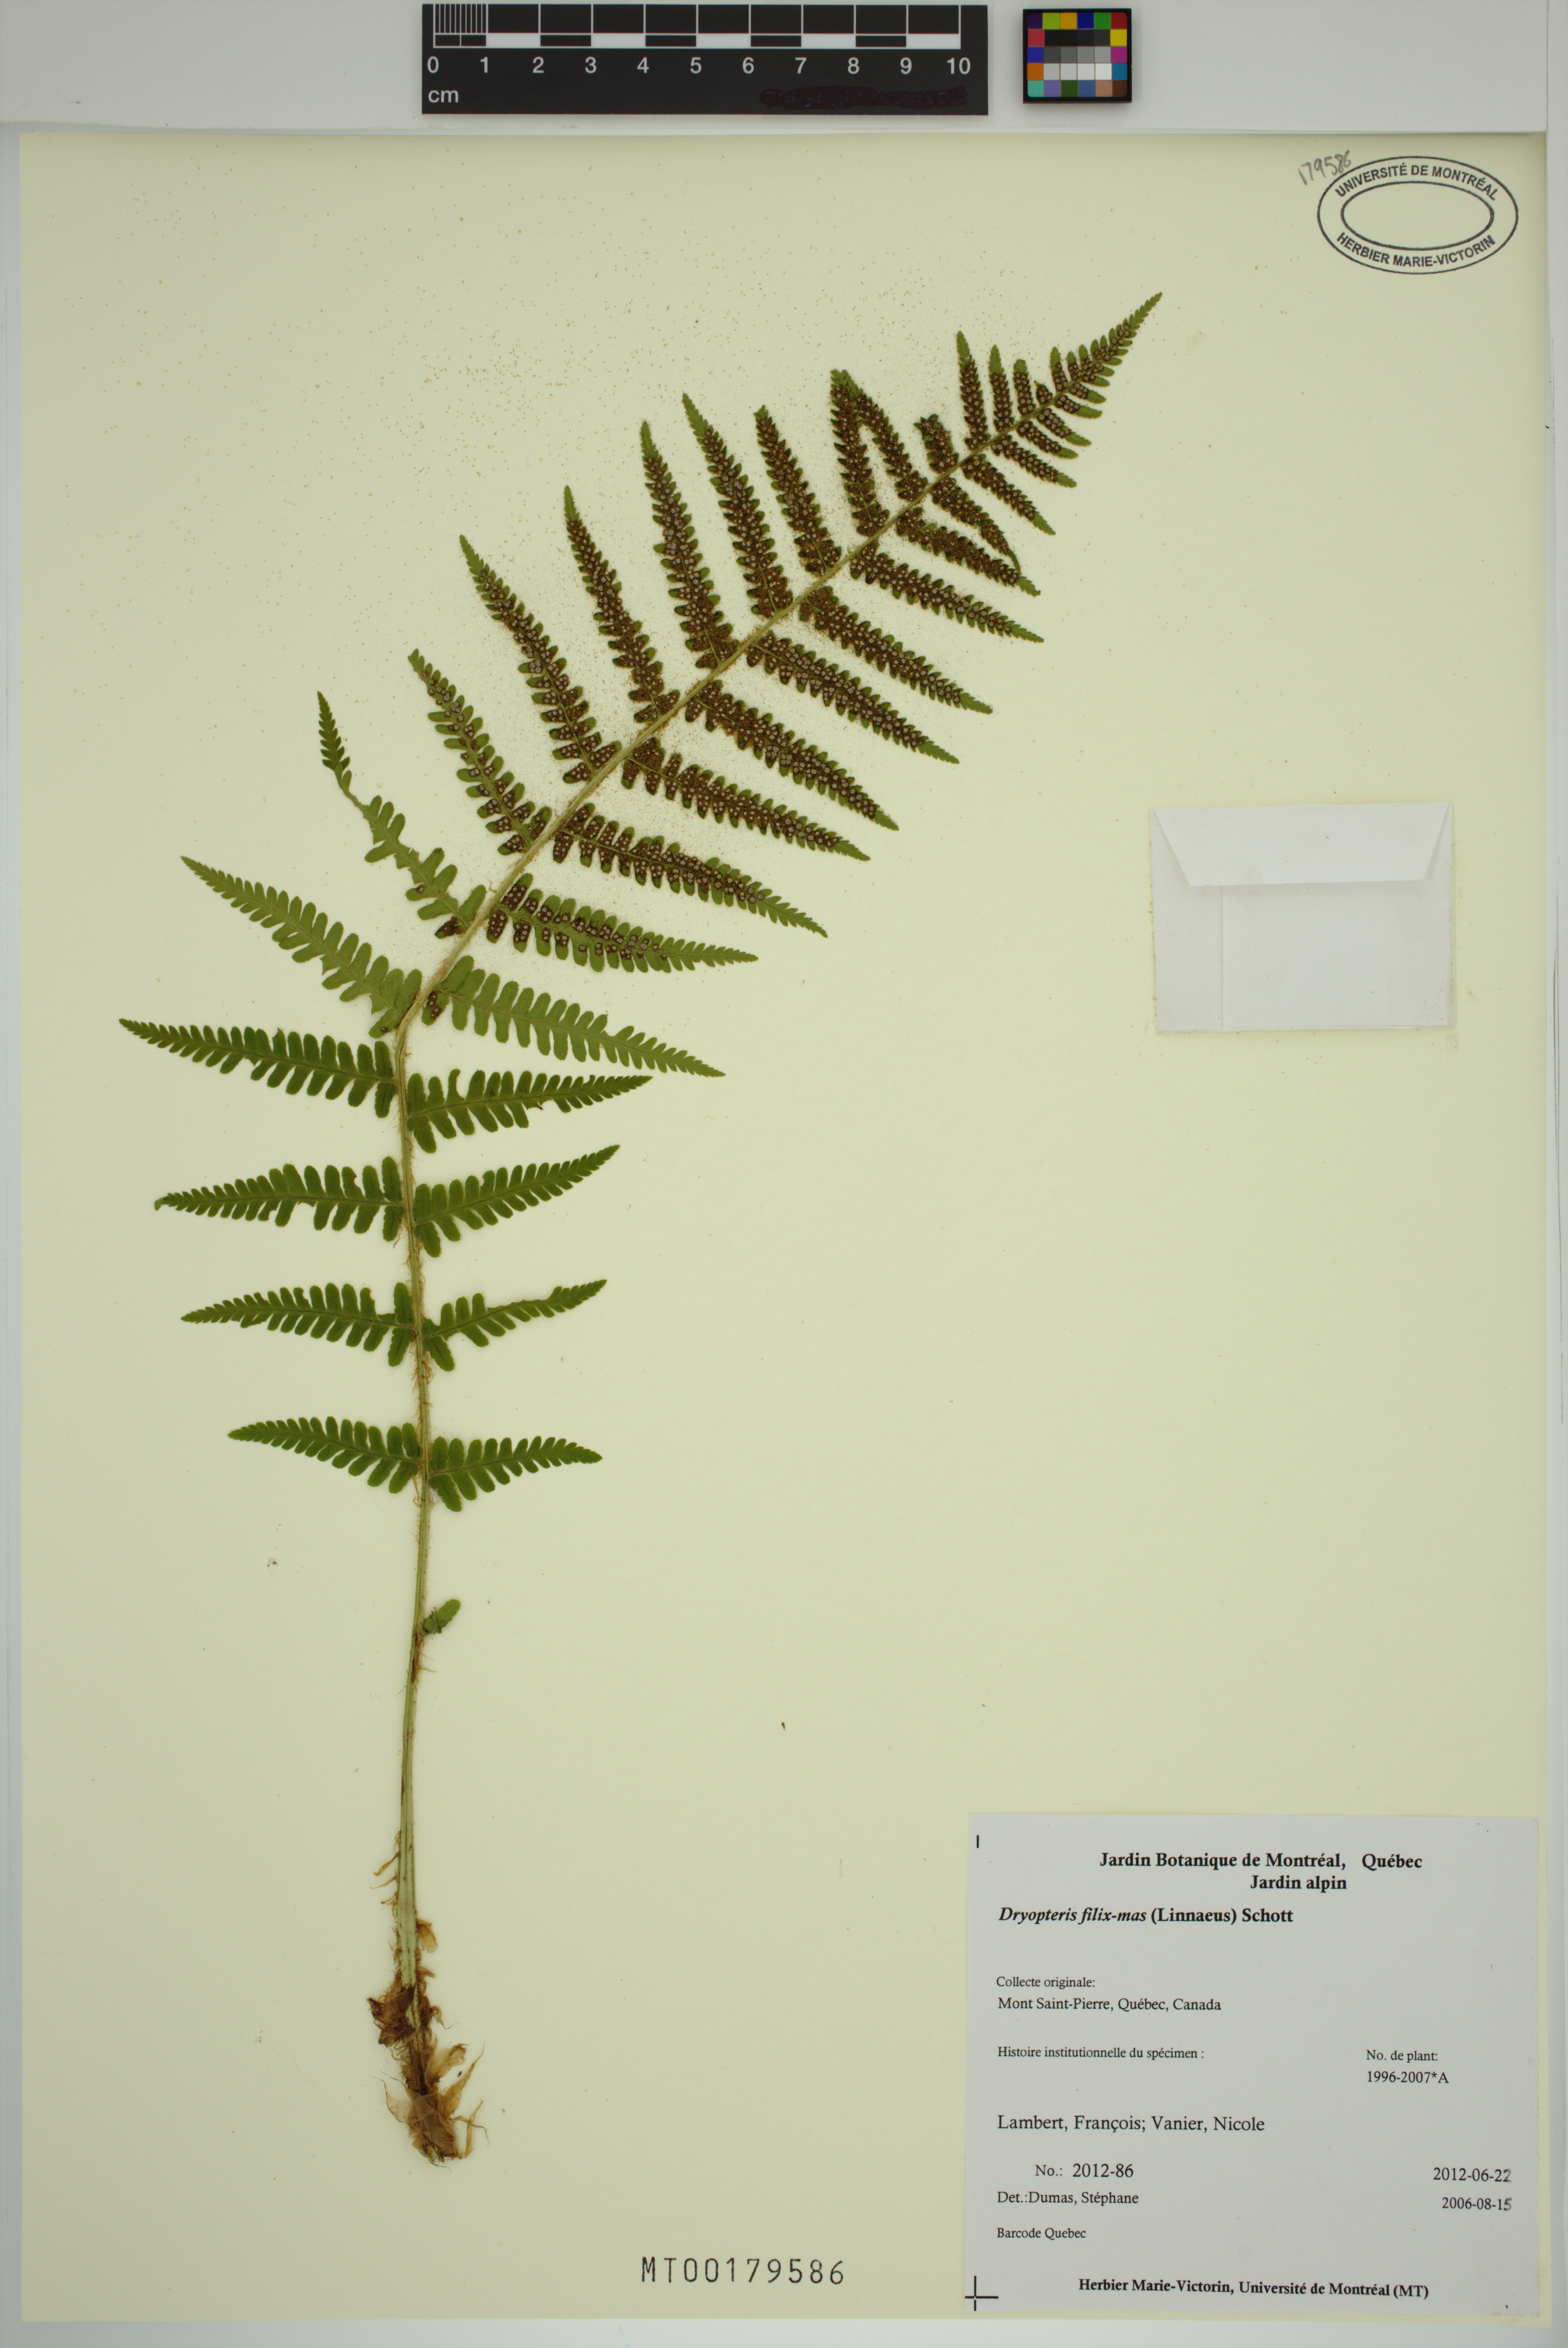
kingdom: Plantae
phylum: Tracheophyta
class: Polypodiopsida
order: Polypodiales
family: Dryopteridaceae
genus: Dryopteris
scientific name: Dryopteris filix-mas
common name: Male fern
